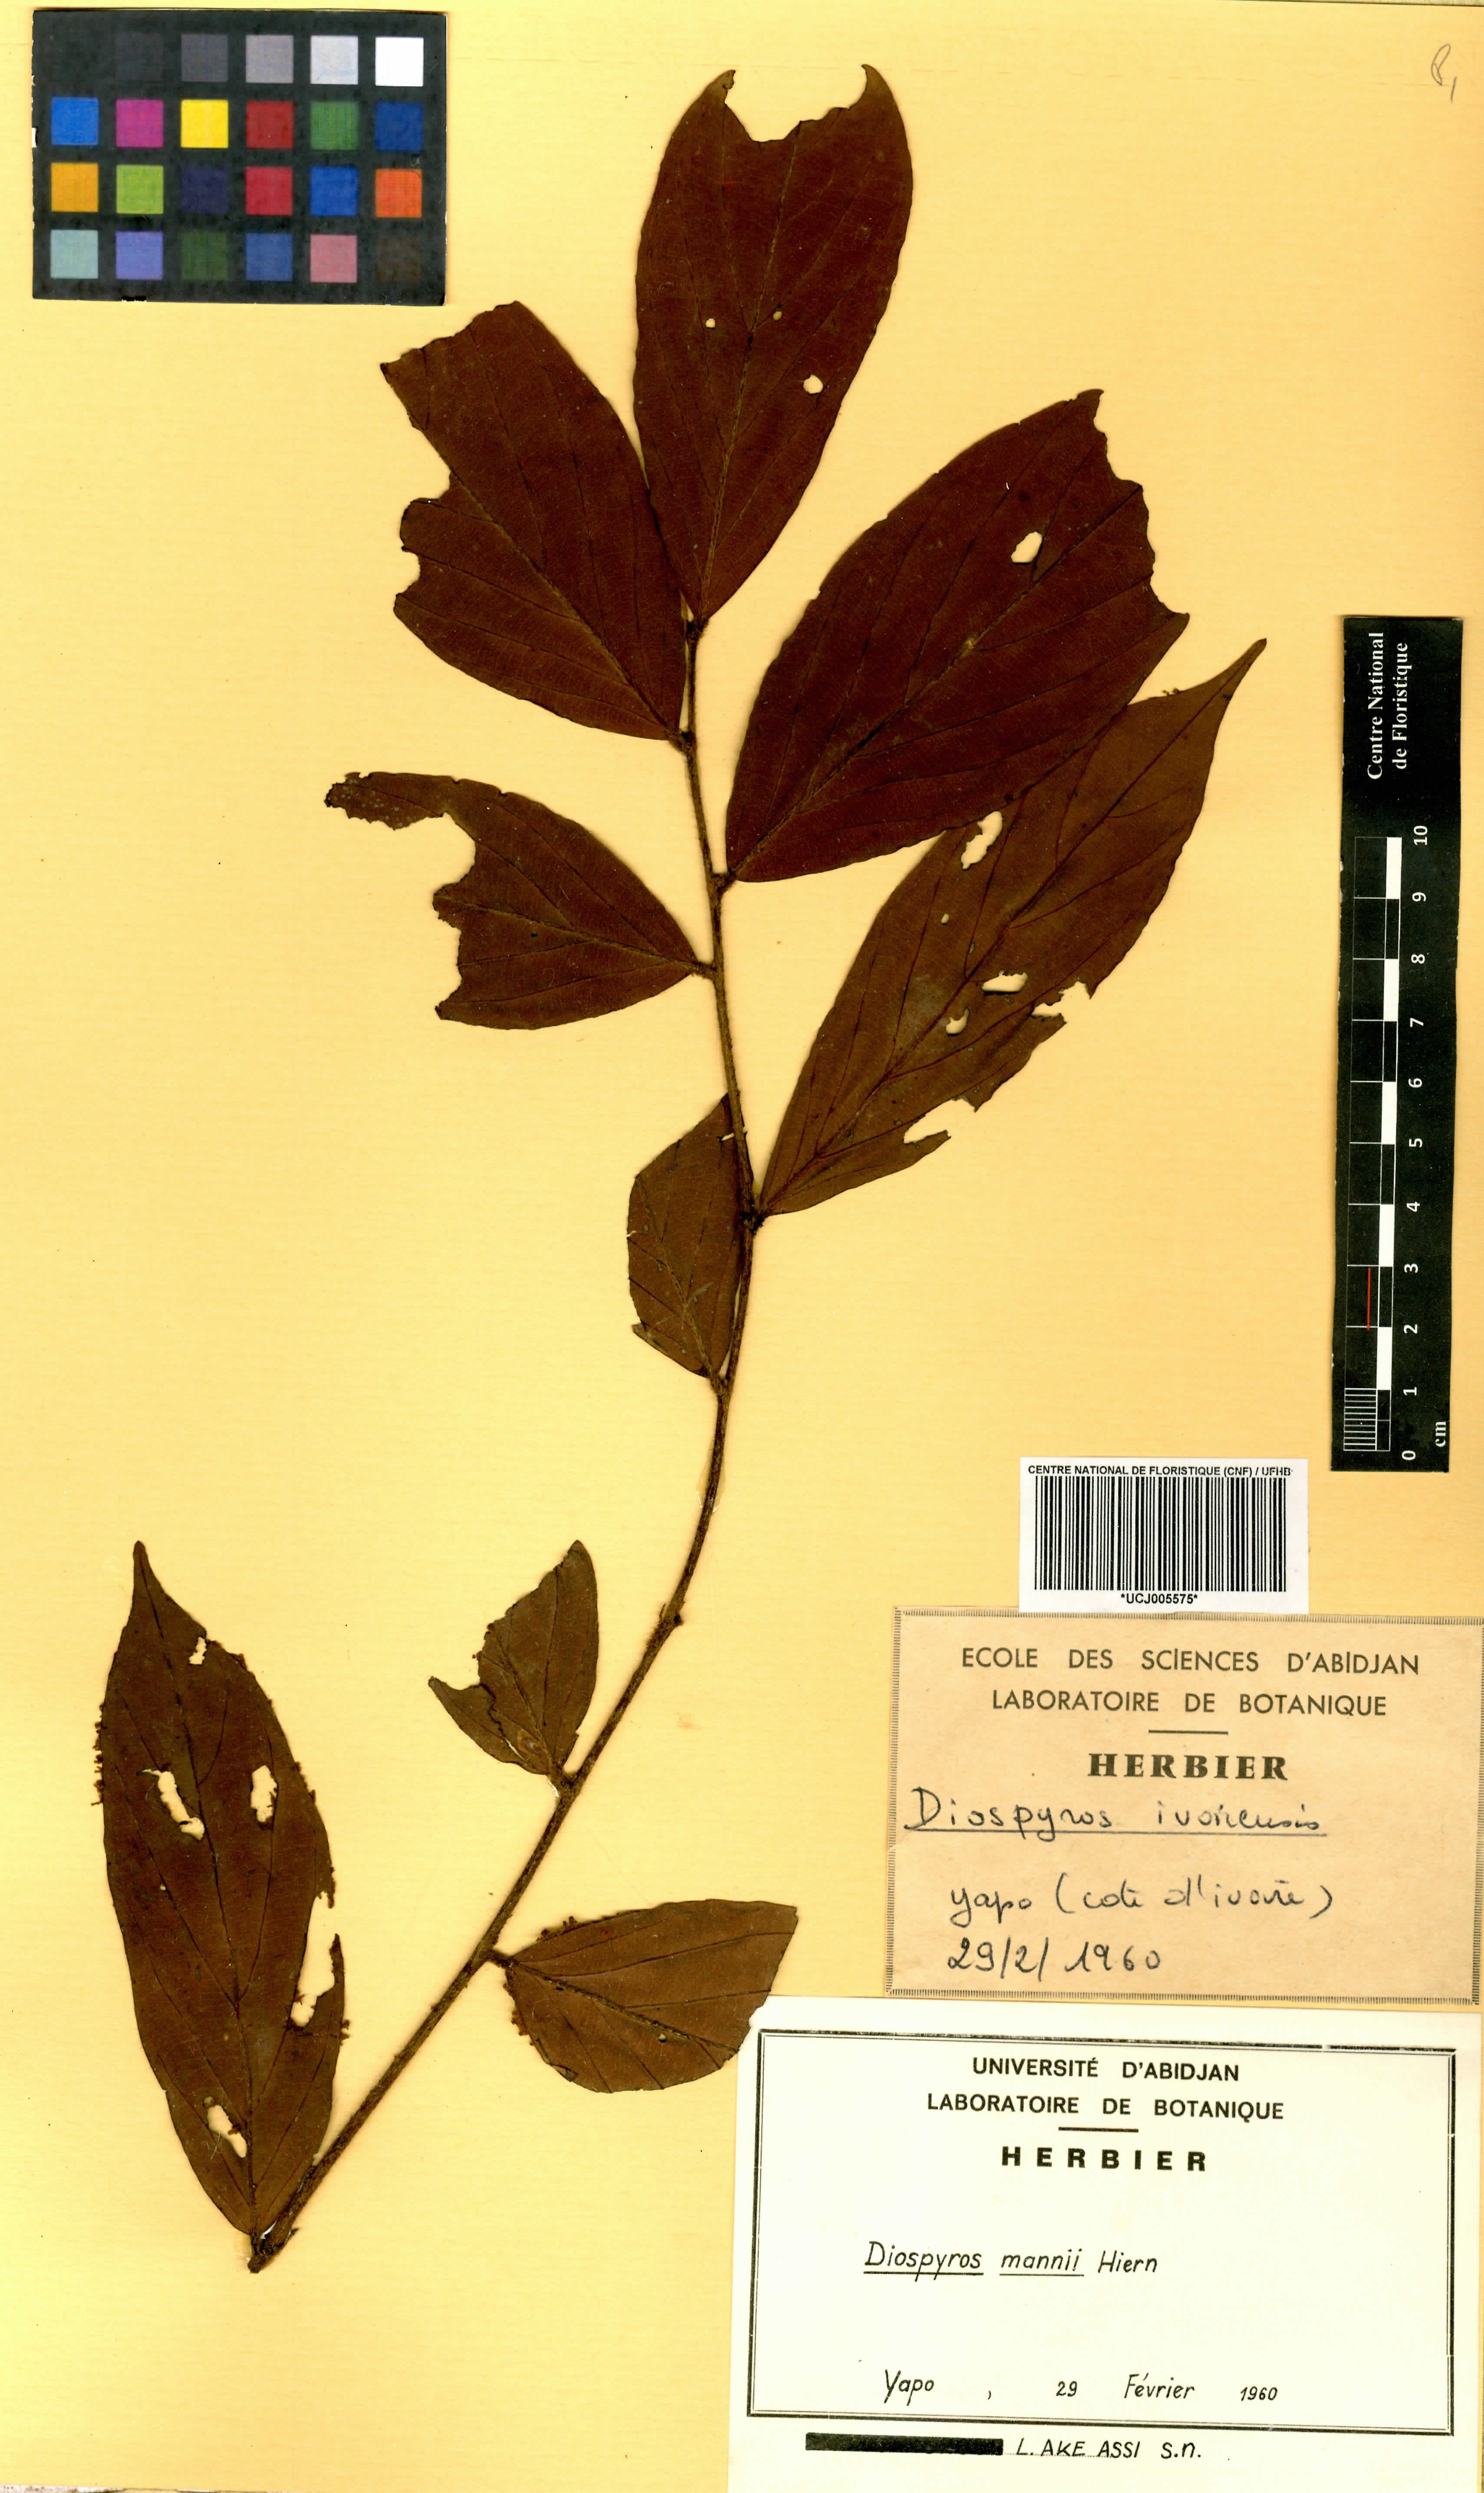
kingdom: Plantae
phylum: Tracheophyta
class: Magnoliopsida
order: Ericales
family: Ebenaceae
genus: Diospyros
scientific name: Diospyros mannii
